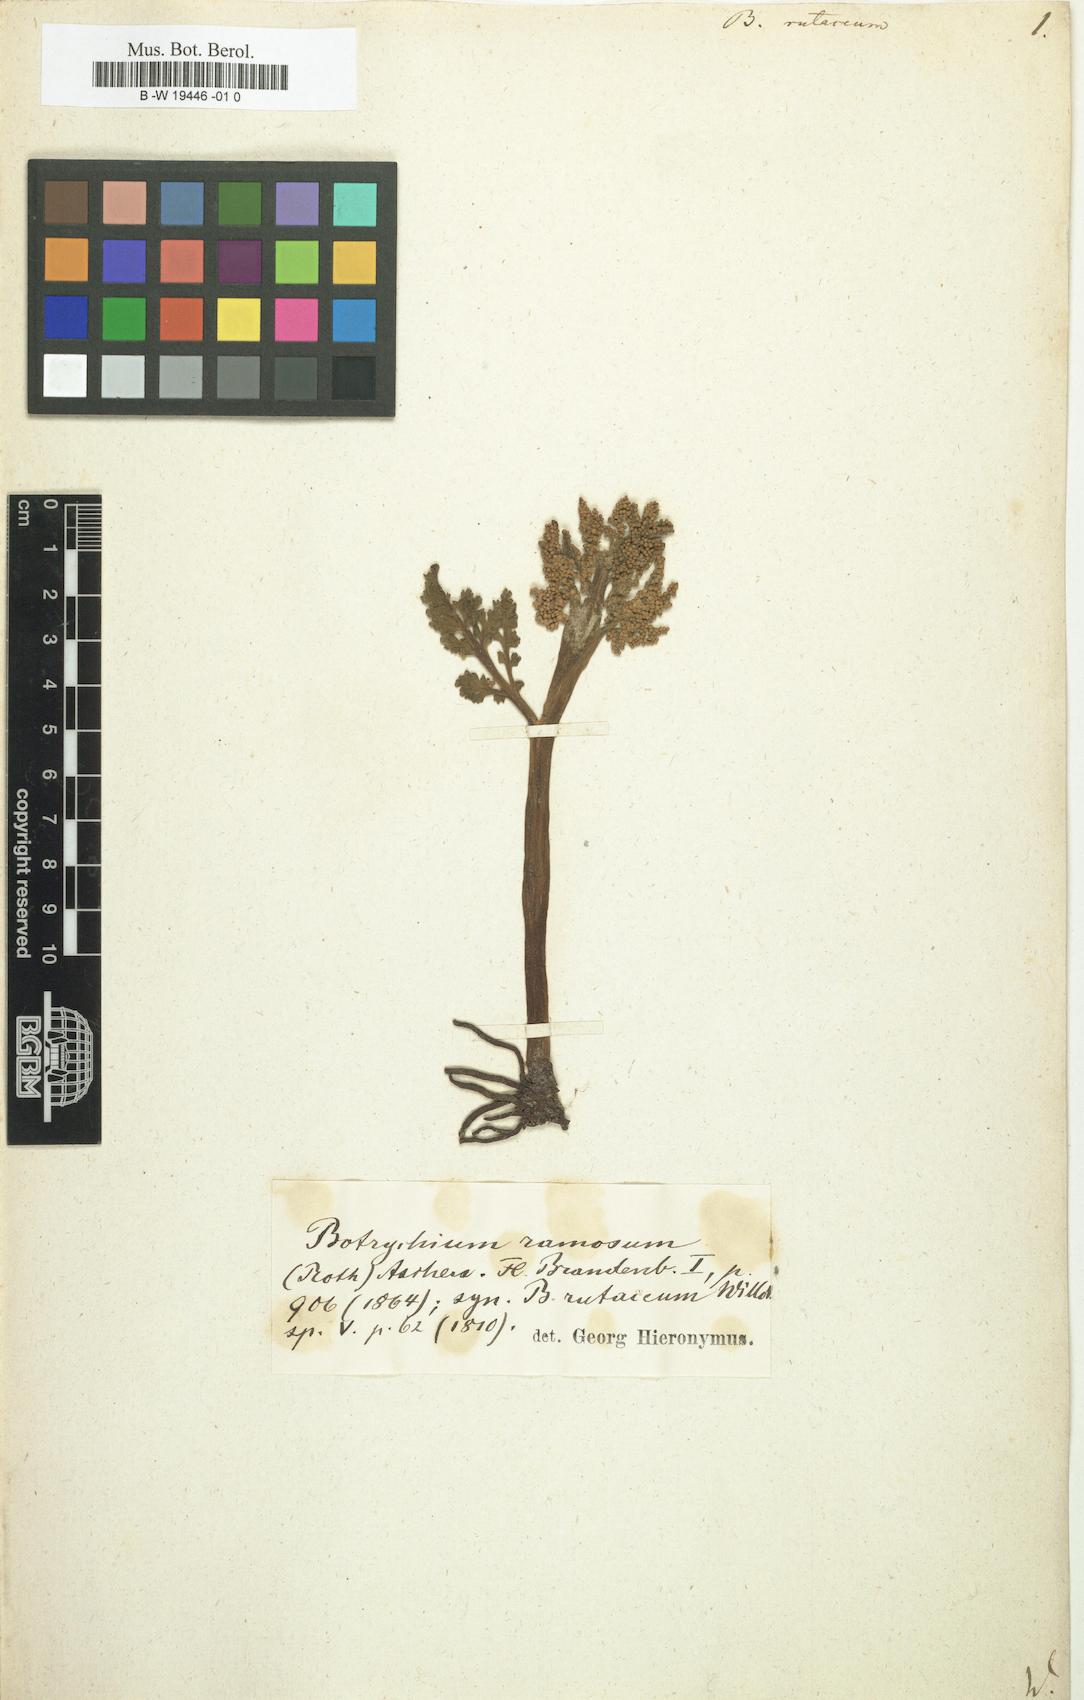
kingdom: Plantae
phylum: Tracheophyta
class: Polypodiopsida
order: Ophioglossales
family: Ophioglossaceae
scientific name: Ophioglossaceae
